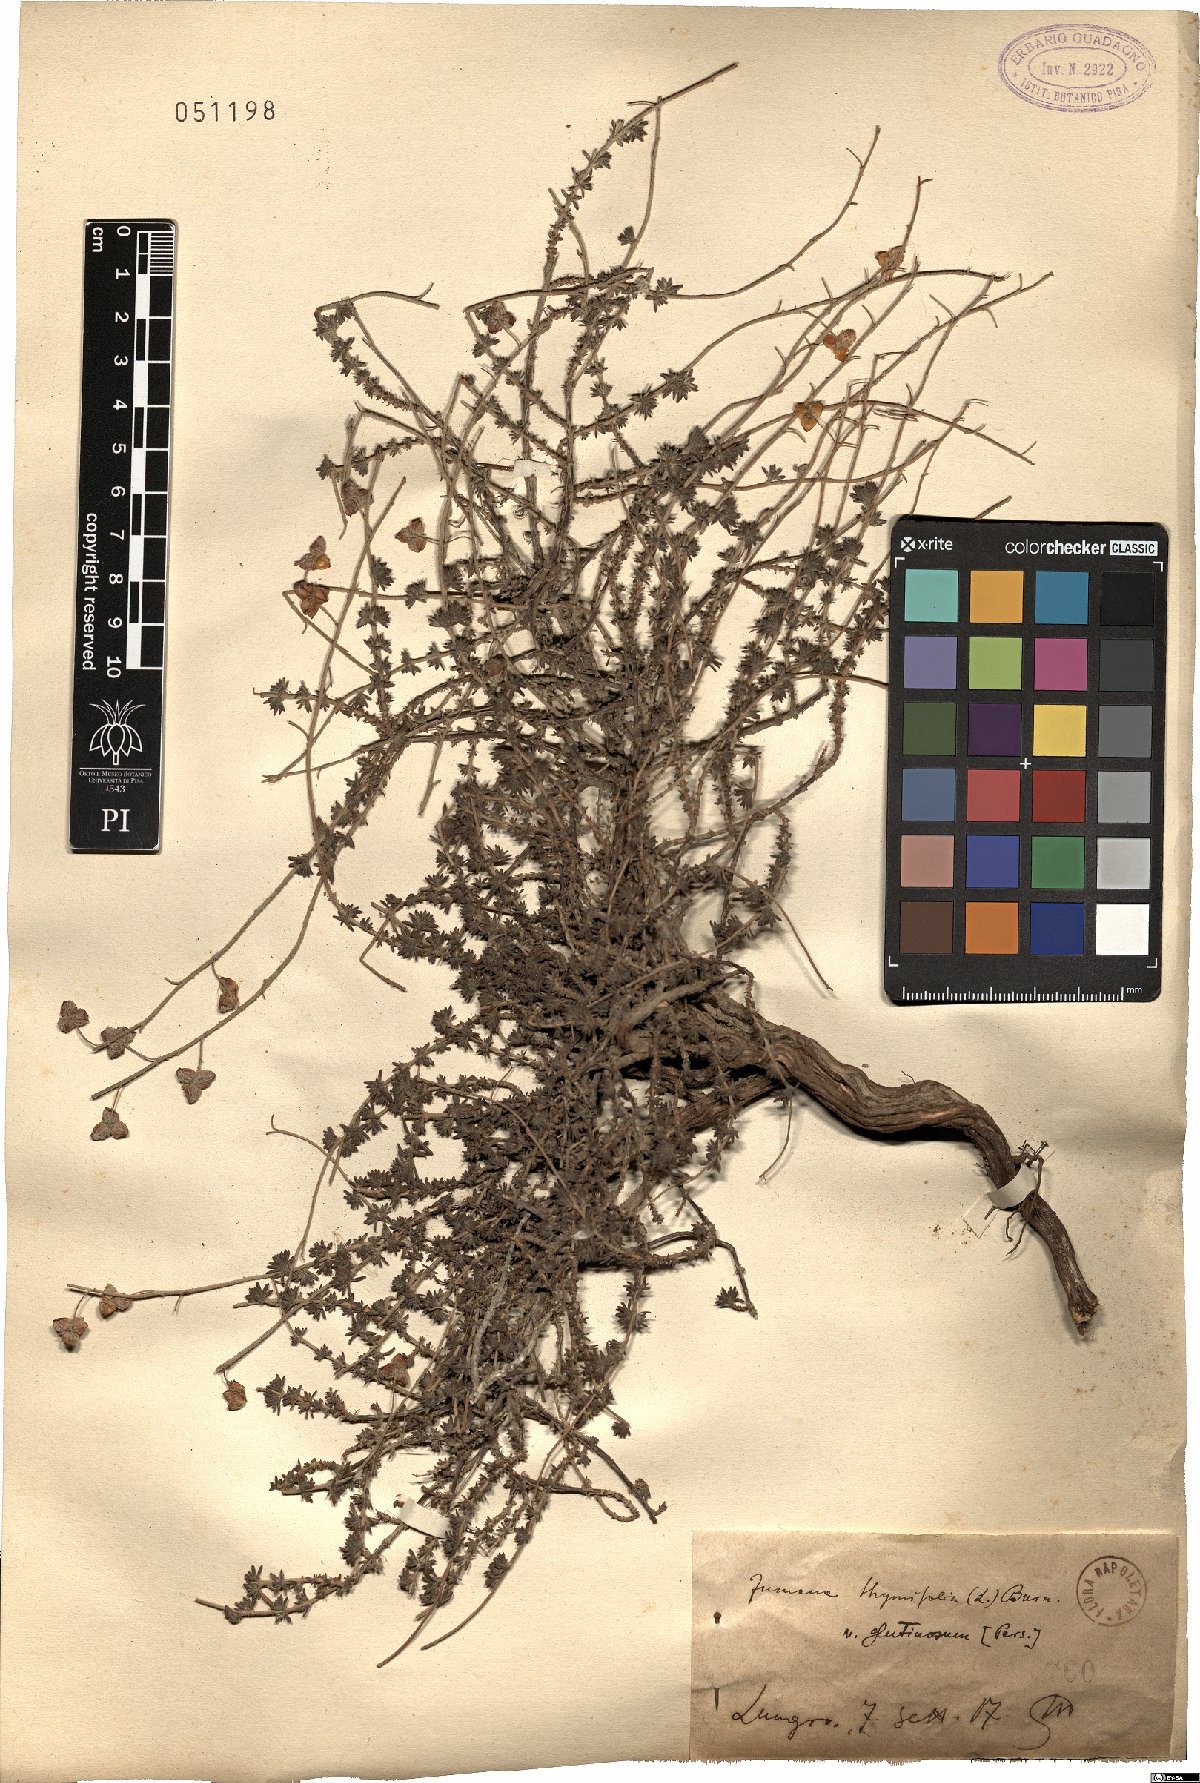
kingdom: Plantae
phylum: Tracheophyta
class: Magnoliopsida
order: Malvales
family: Cistaceae
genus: Fumana
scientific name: Fumana thymifolia
